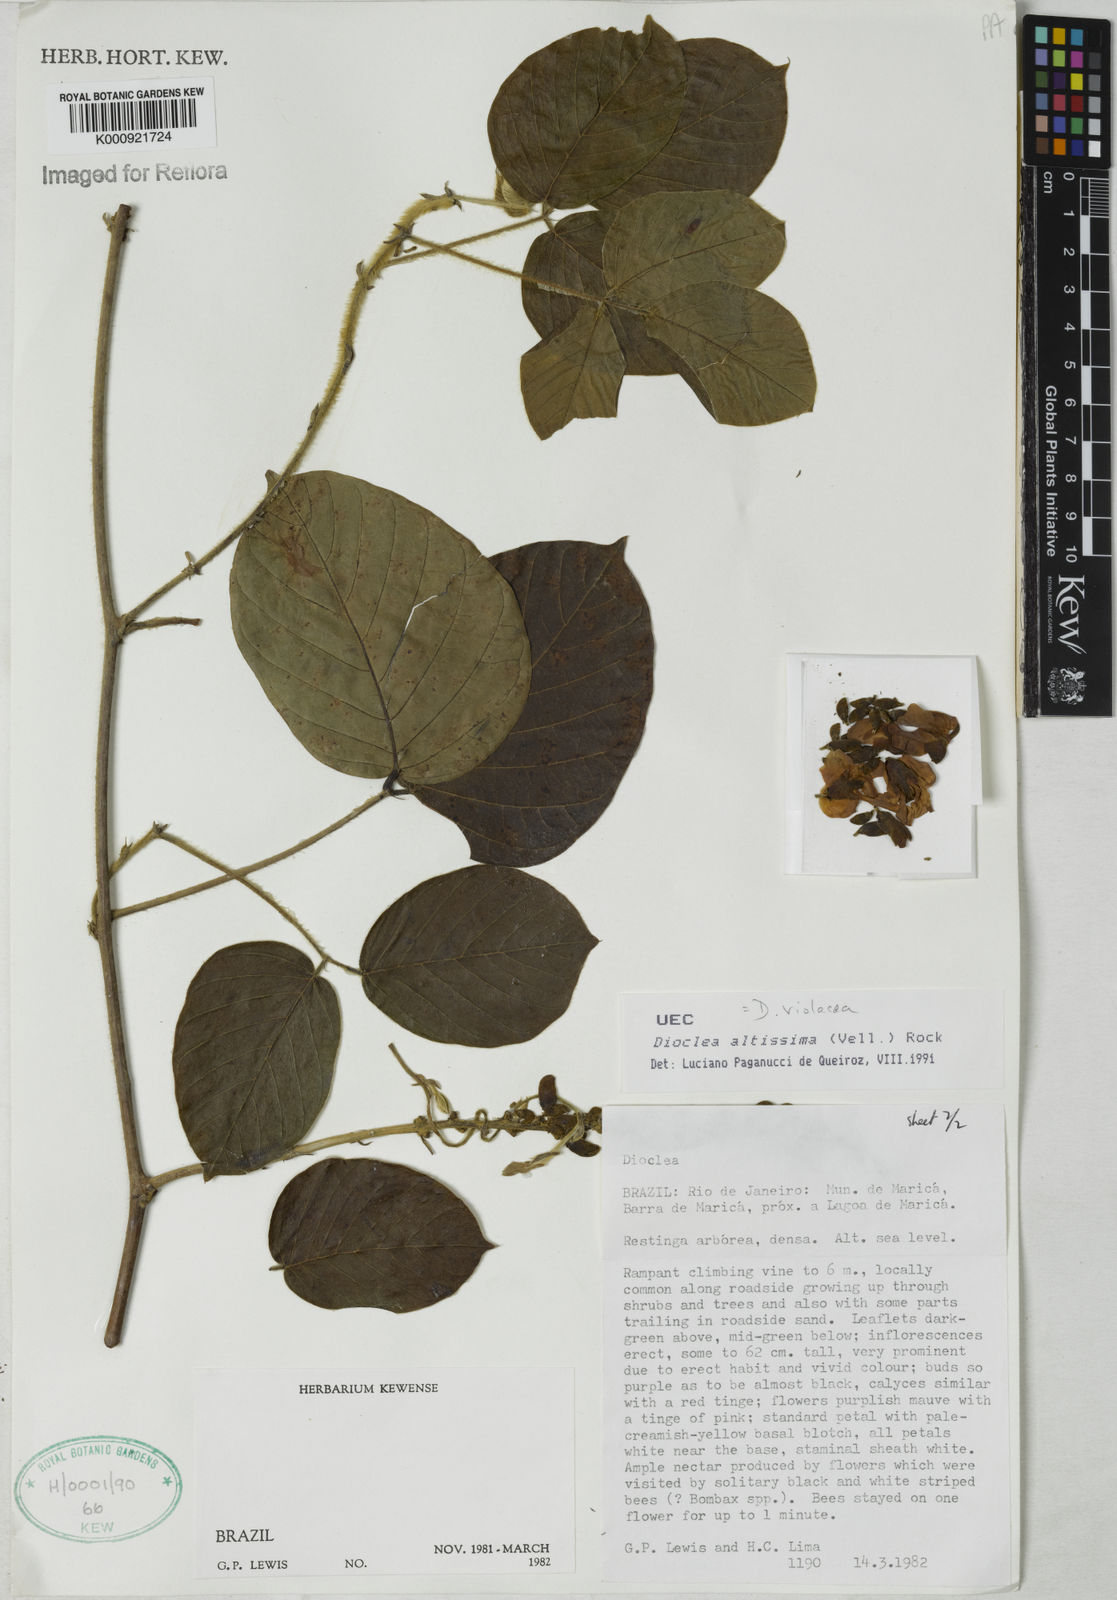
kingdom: Plantae
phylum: Tracheophyta
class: Magnoliopsida
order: Fabales
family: Fabaceae
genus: Macropsychanthus
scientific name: Macropsychanthus violaceus
